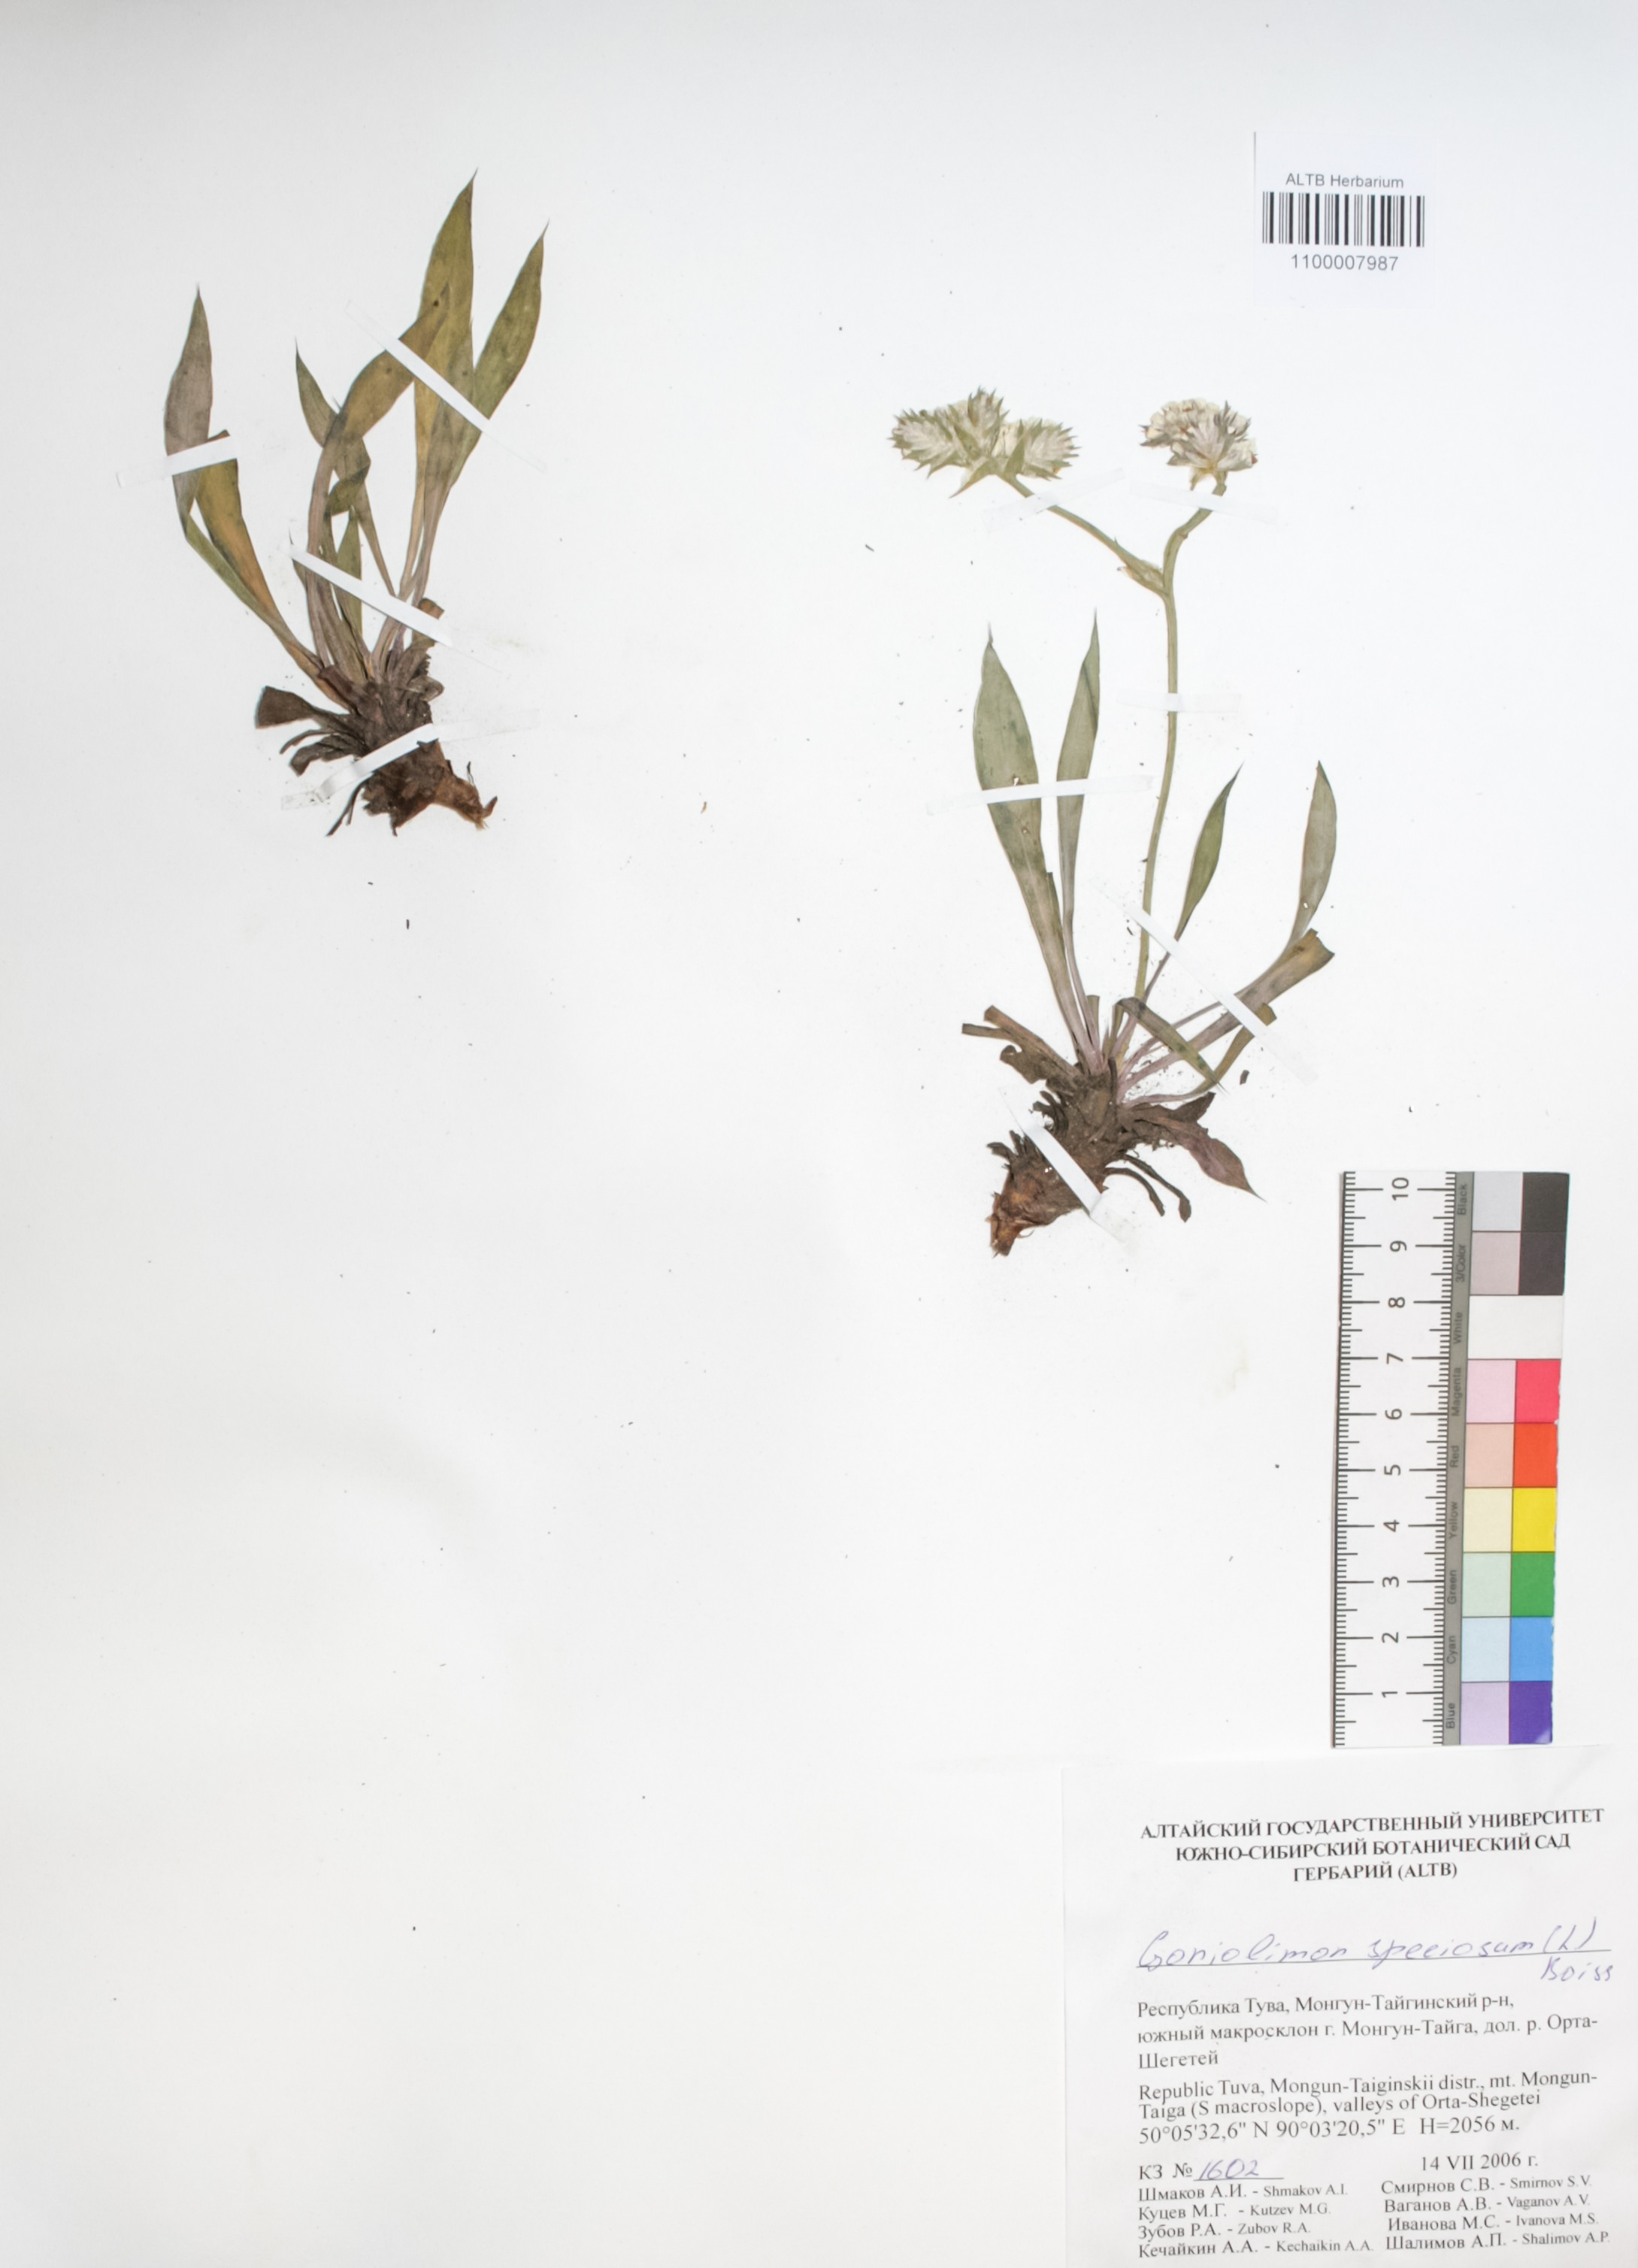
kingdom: Plantae
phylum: Tracheophyta
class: Magnoliopsida
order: Caryophyllales
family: Plumbaginaceae
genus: Goniolimon
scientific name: Goniolimon speciosum
